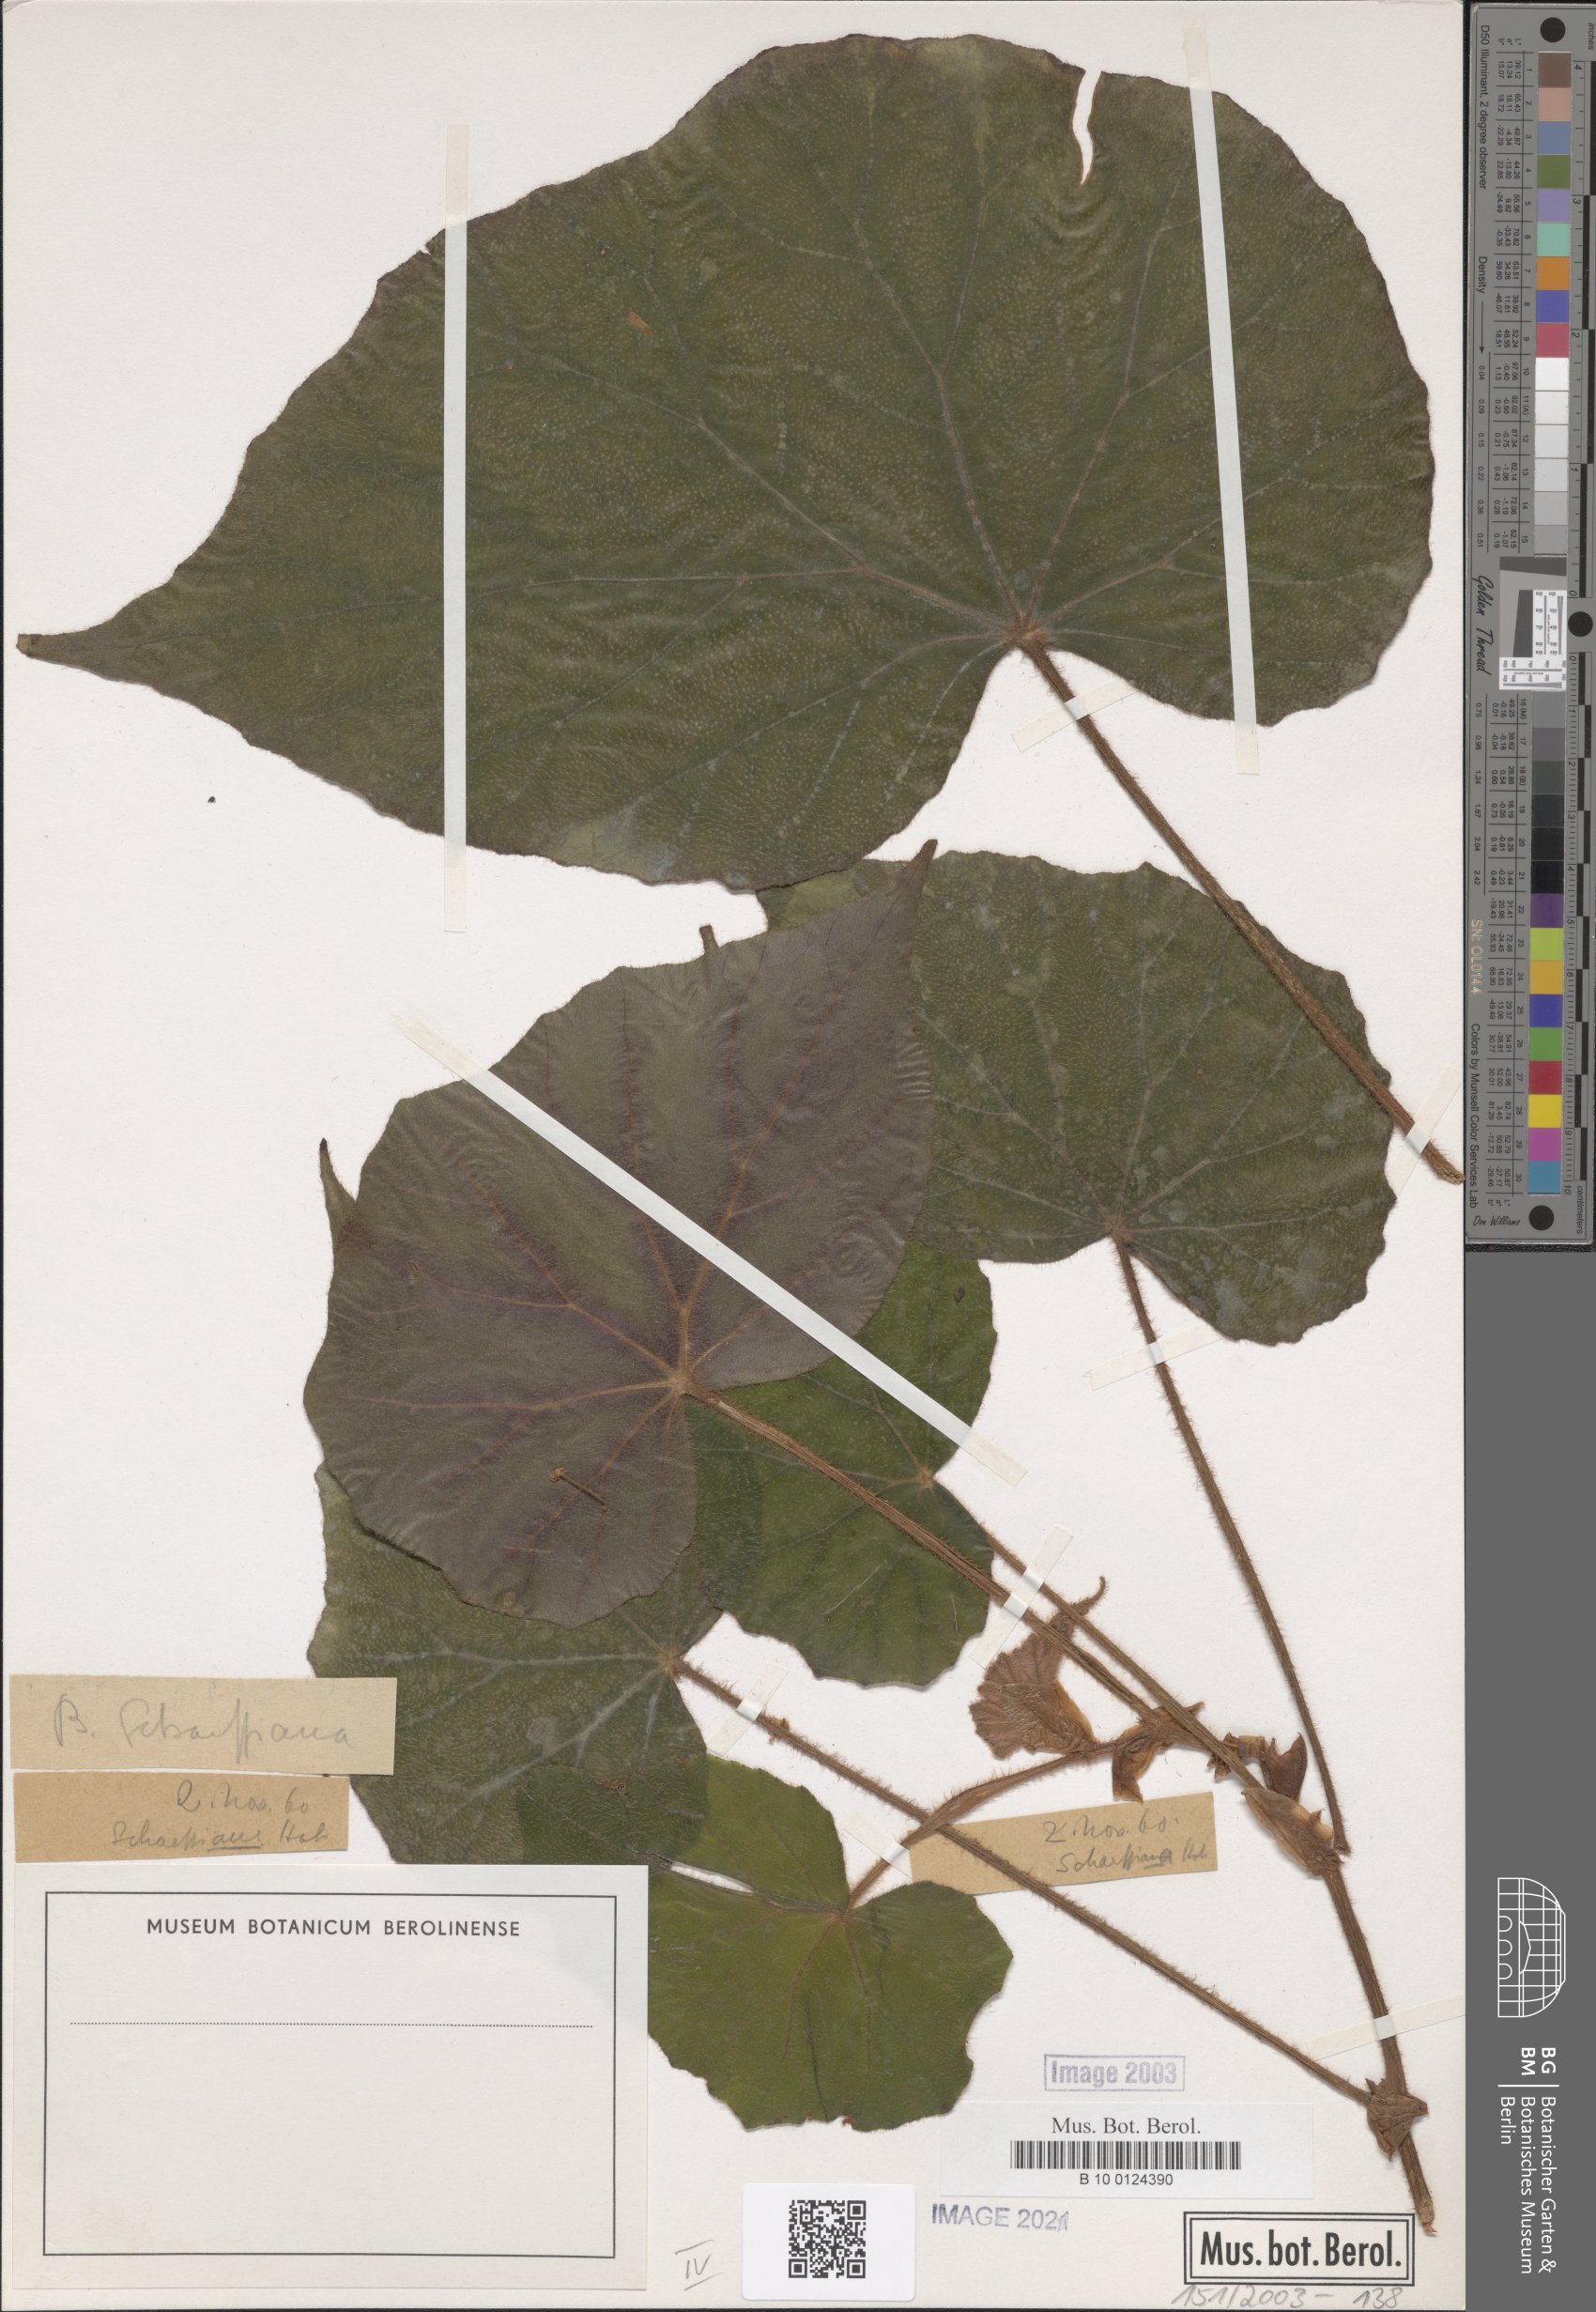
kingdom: Plantae
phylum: Tracheophyta
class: Magnoliopsida
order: Cucurbitales
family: Begoniaceae
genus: Begonia
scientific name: Begonia scharffiana
